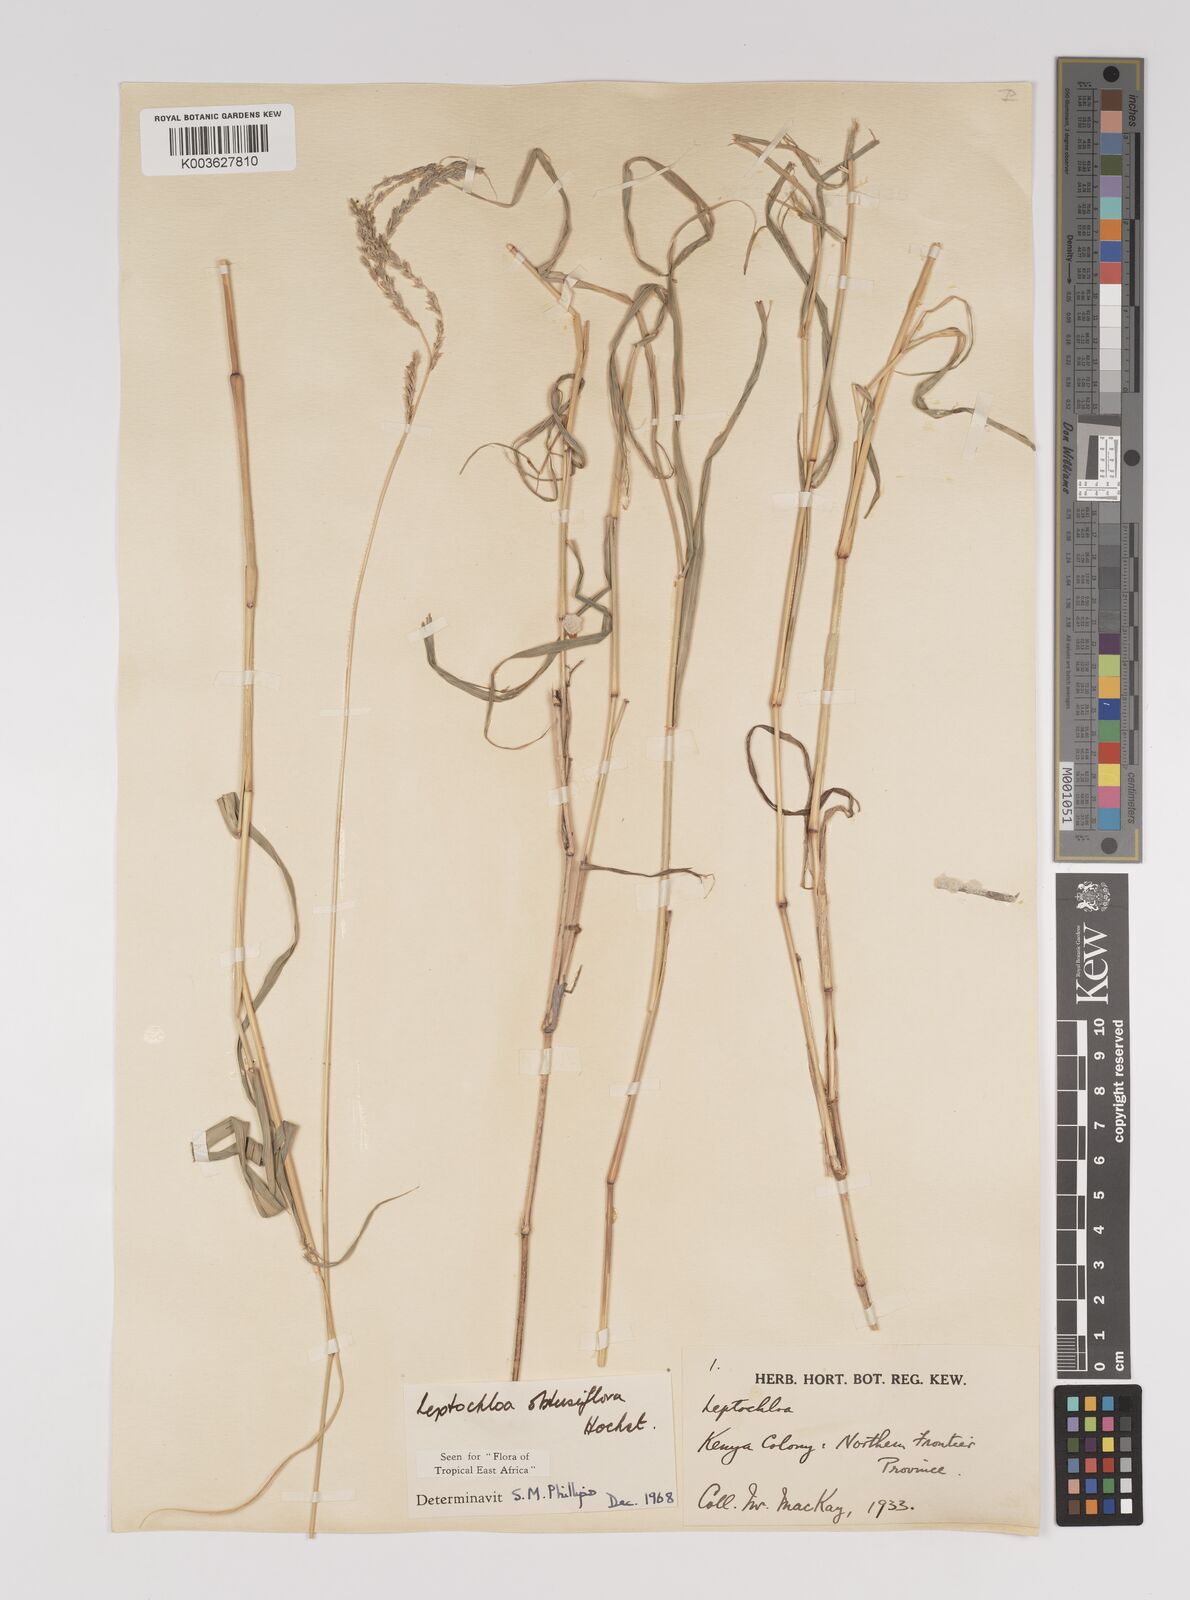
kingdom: Plantae
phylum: Tracheophyta
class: Liliopsida
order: Poales
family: Poaceae
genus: Disakisperma
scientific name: Disakisperma obtusiflorum
